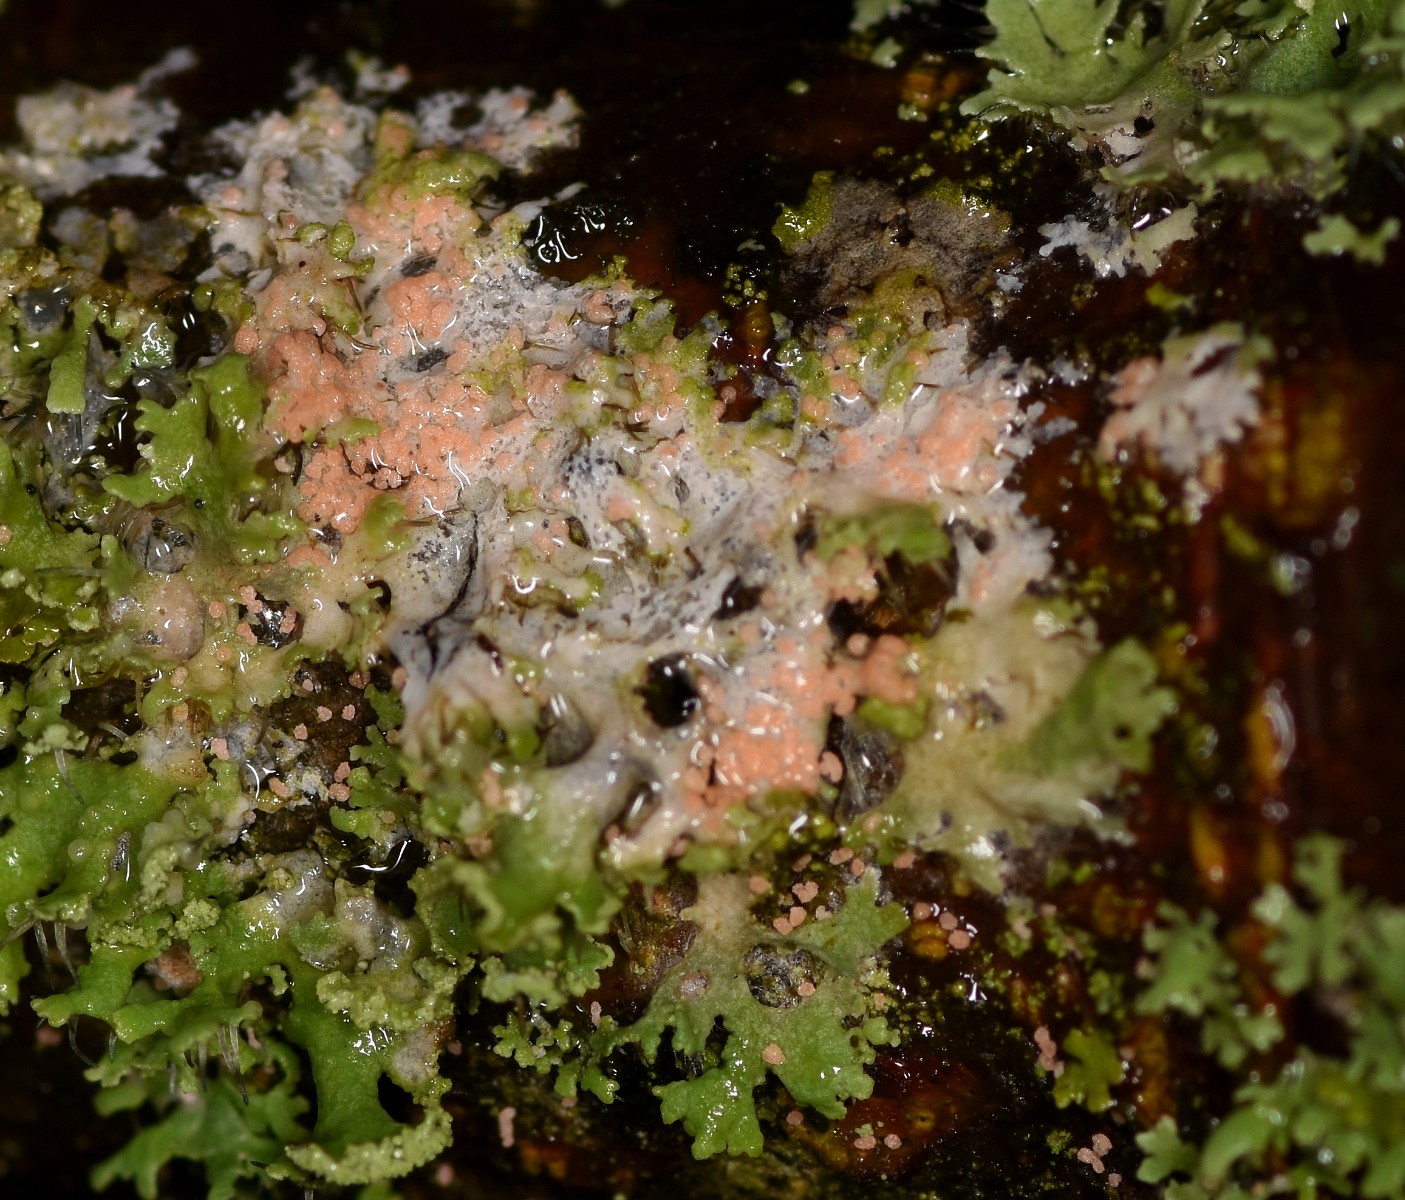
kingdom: Fungi
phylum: Basidiomycota
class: Agaricomycetes
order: Corticiales
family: Corticiaceae
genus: Erythricium
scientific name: Erythricium aurantiacum
